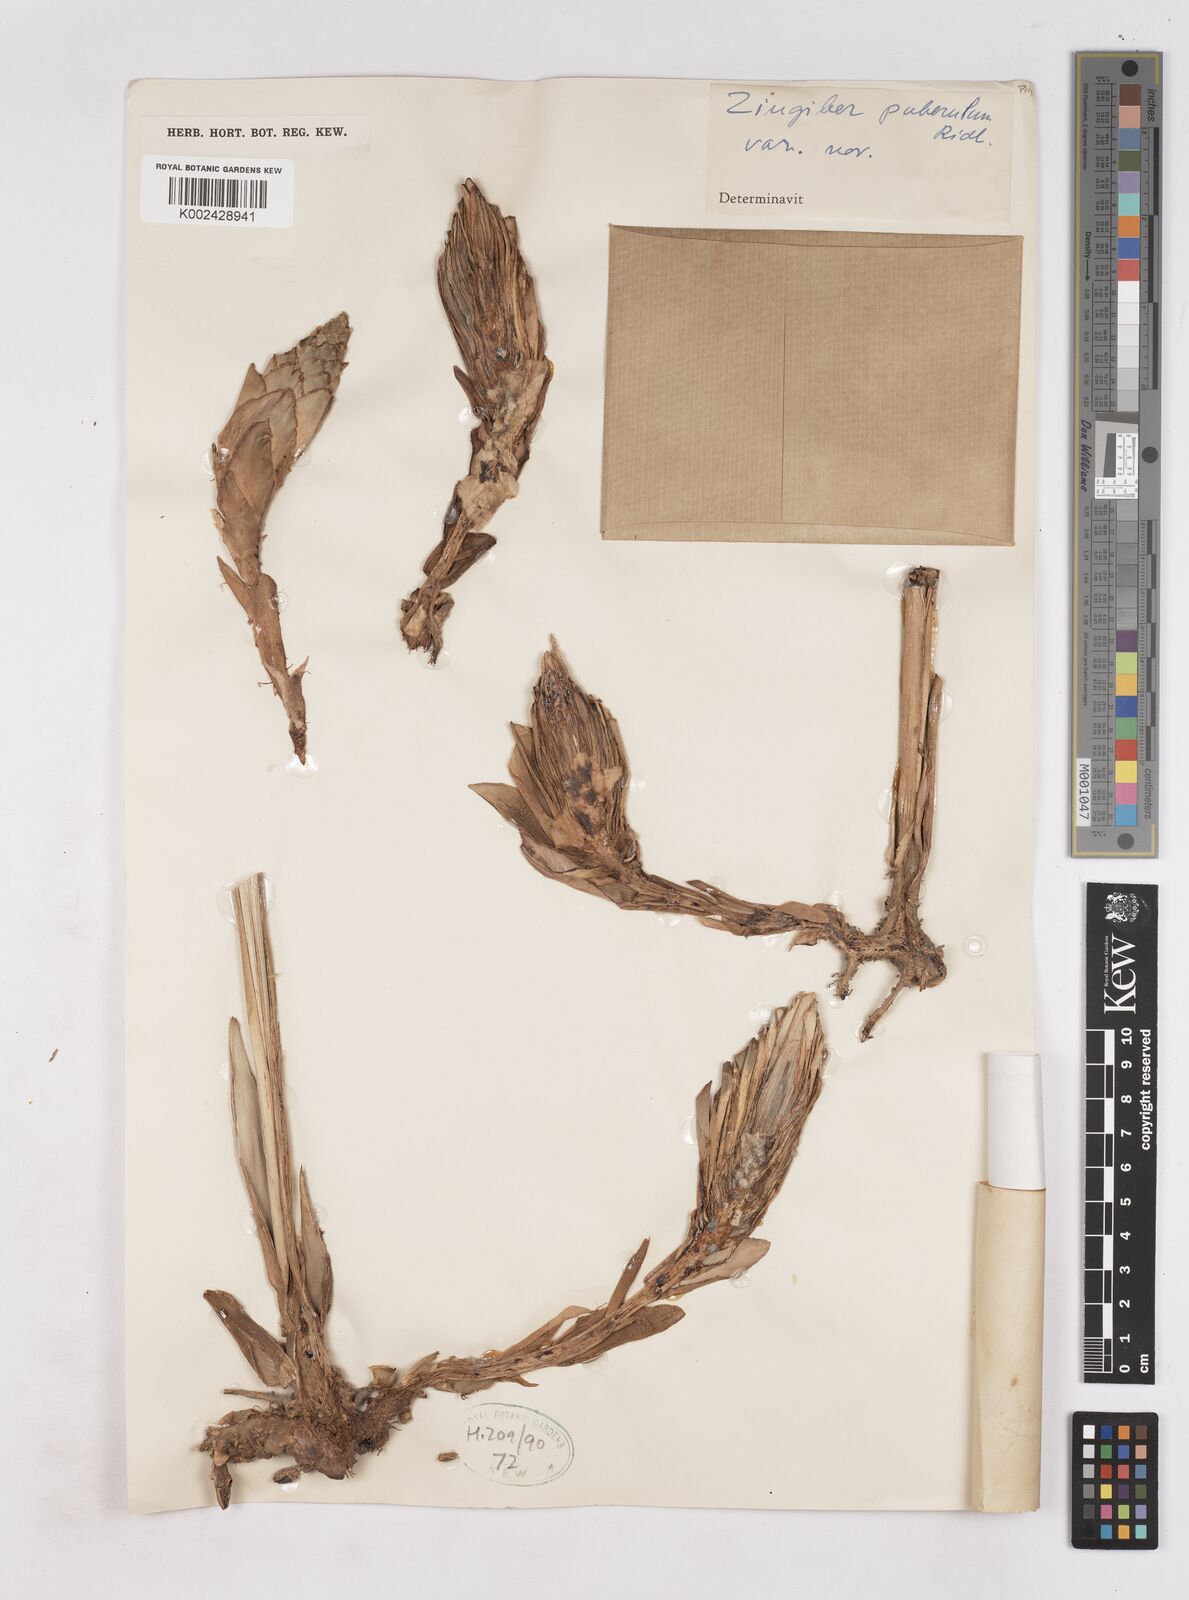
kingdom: Plantae
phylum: Tracheophyta
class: Liliopsida
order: Zingiberales
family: Zingiberaceae
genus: Zingiber
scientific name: Zingiber puberulum
